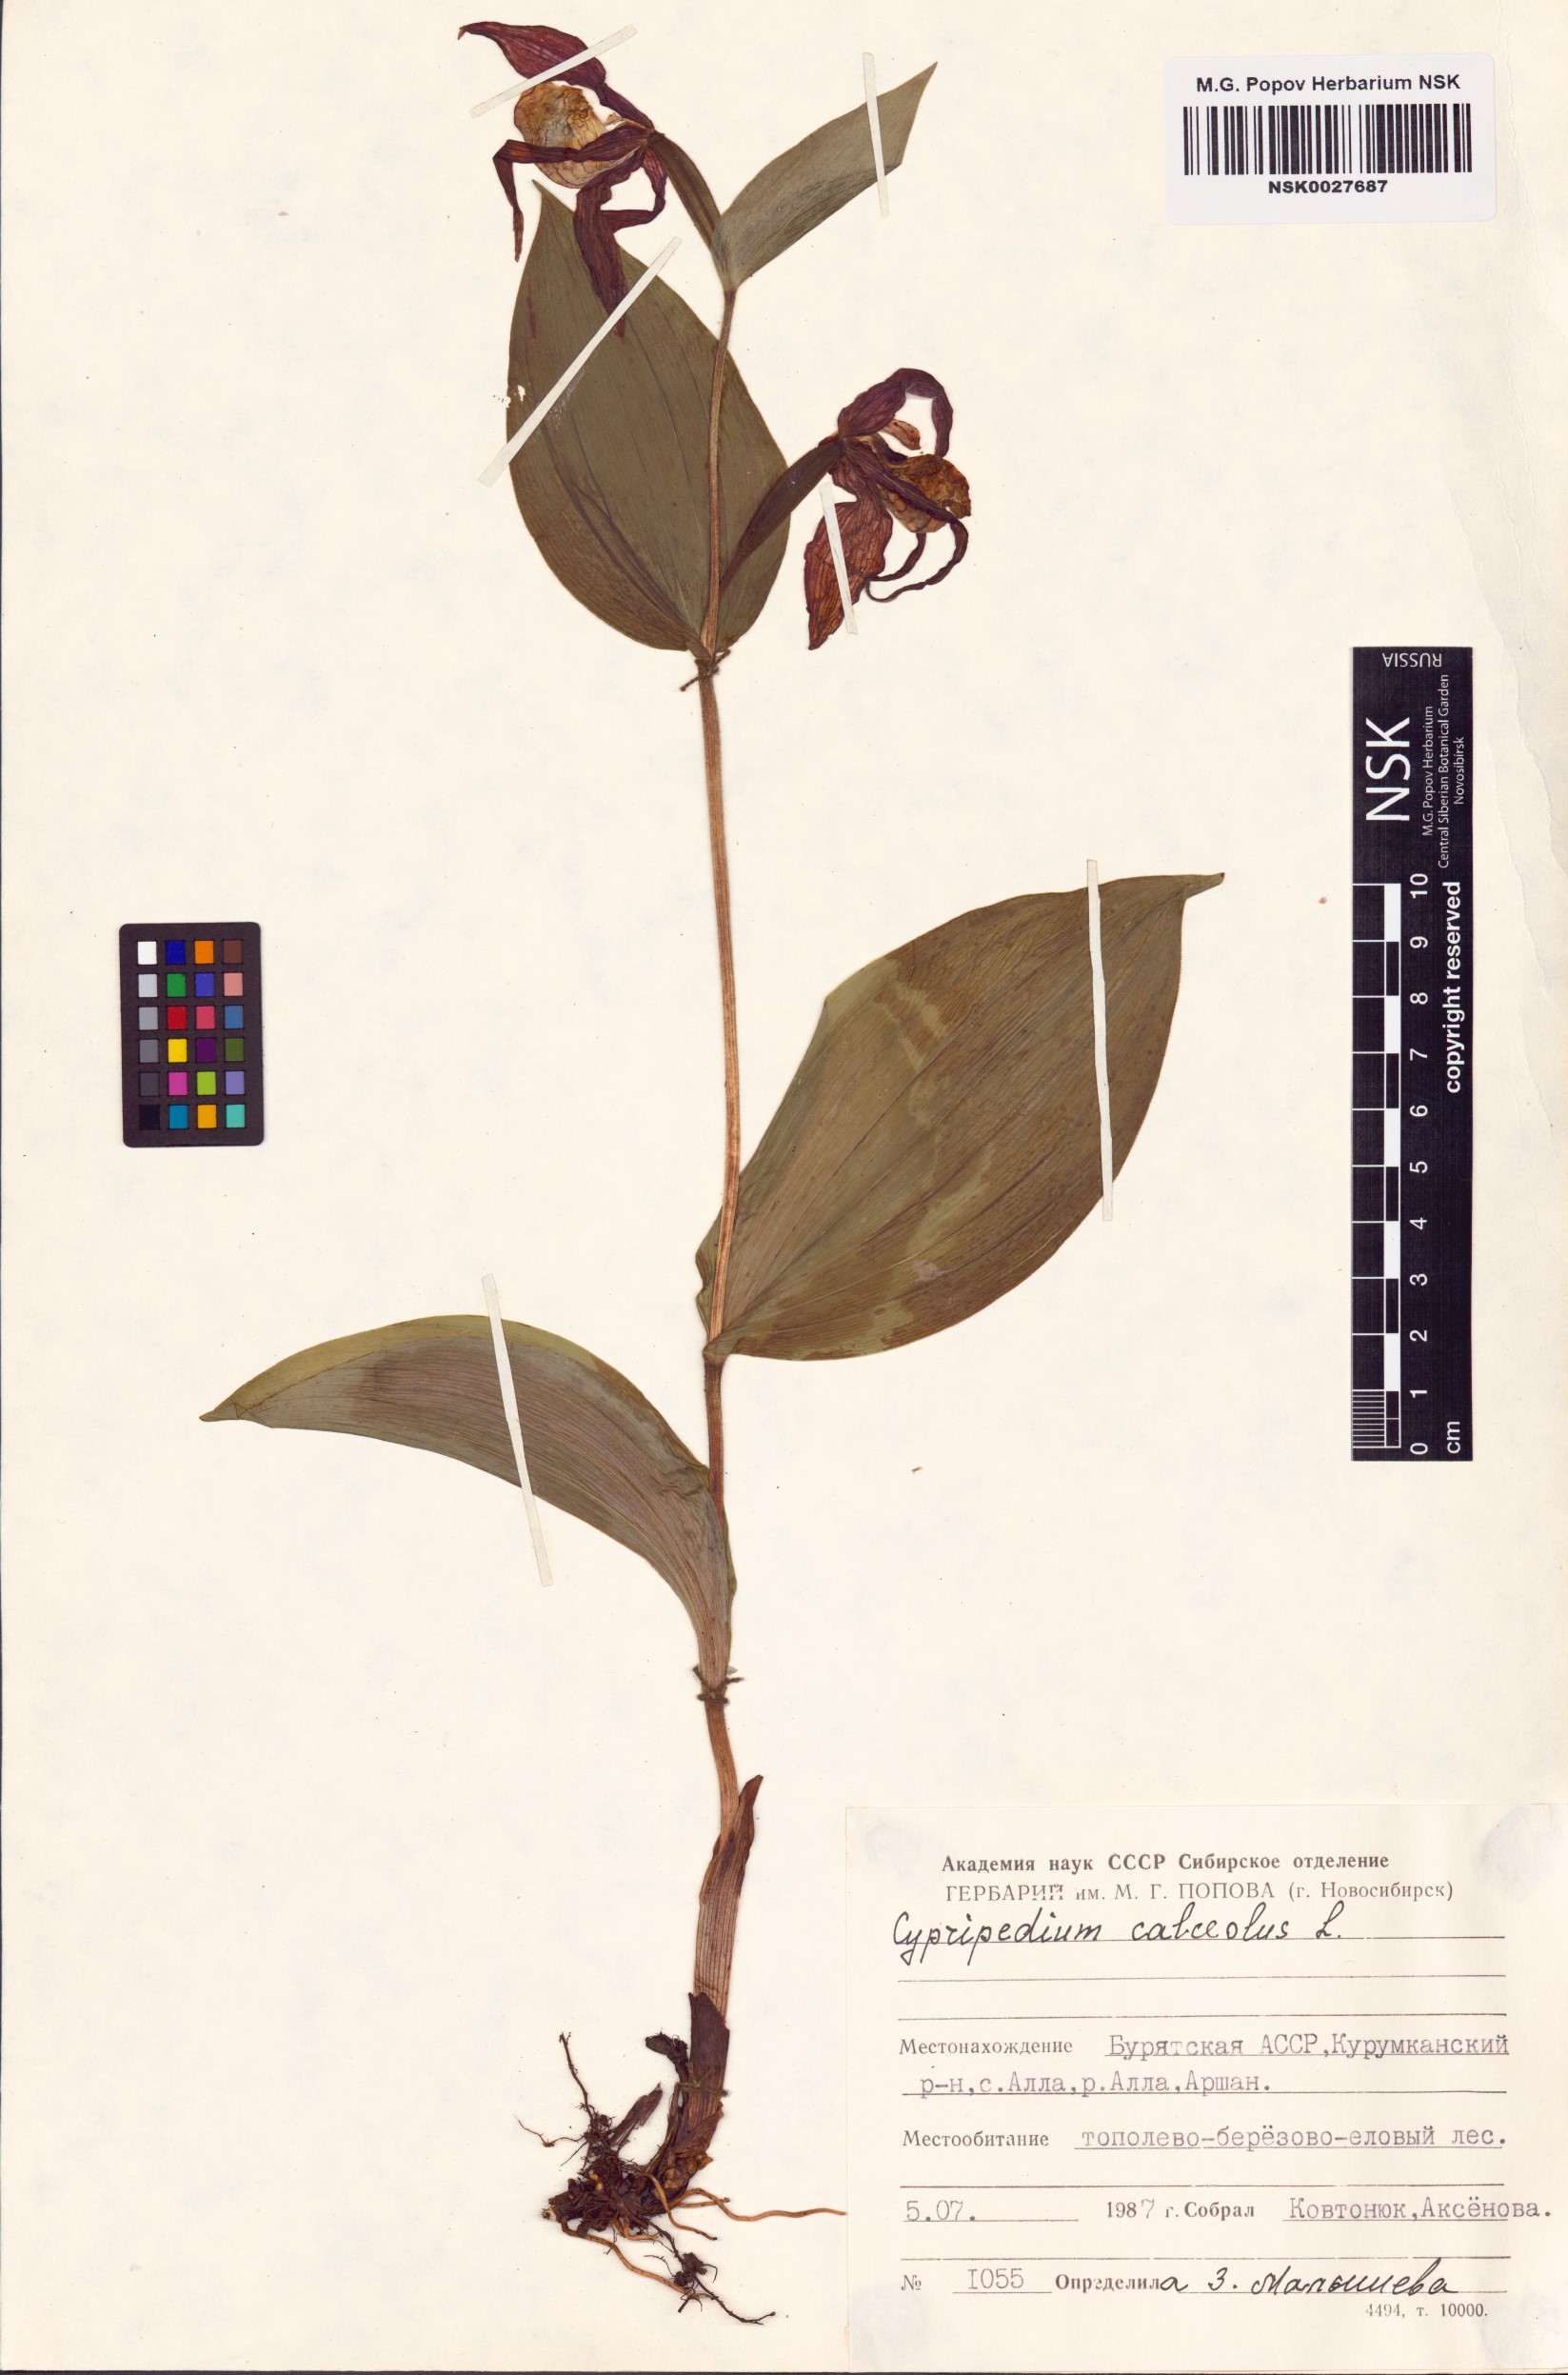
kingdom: Plantae
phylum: Tracheophyta
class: Liliopsida
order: Asparagales
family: Orchidaceae
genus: Cypripedium
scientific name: Cypripedium calceolus
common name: Lady's-slipper
